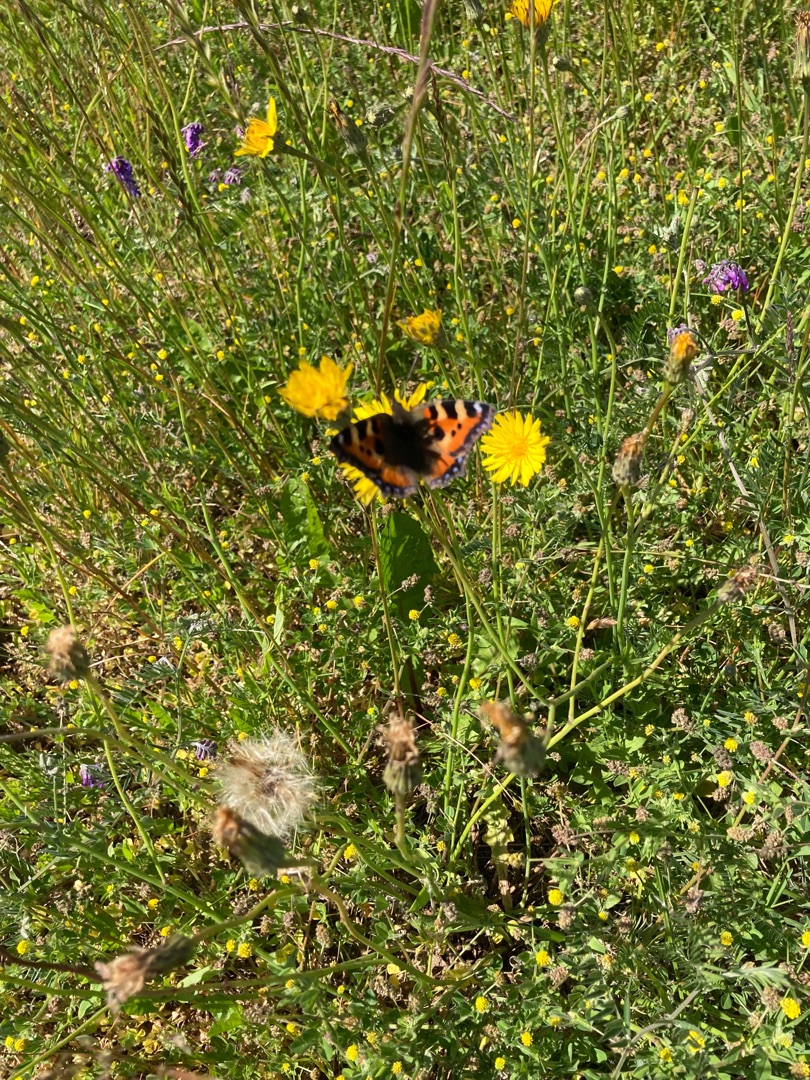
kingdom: Animalia
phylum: Arthropoda
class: Insecta
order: Lepidoptera
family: Nymphalidae
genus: Aglais
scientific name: Aglais urticae
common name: Nældens takvinge
